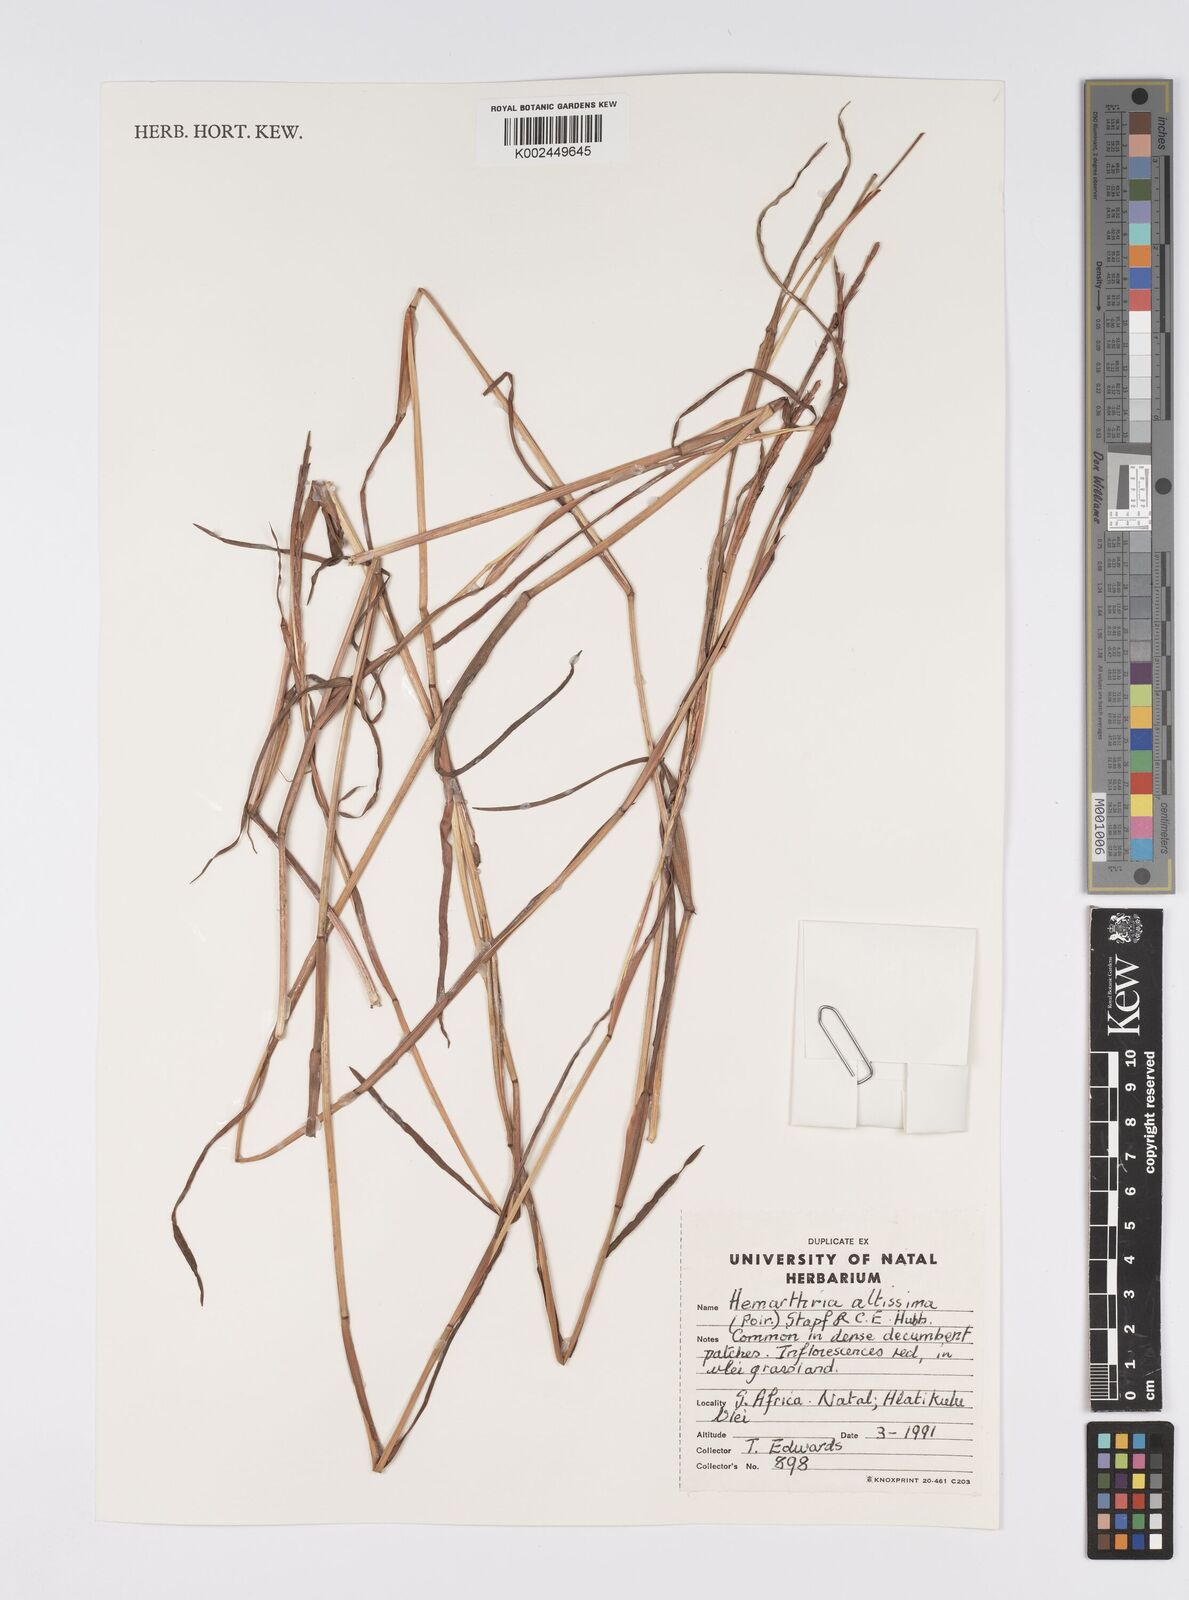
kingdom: Plantae
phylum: Tracheophyta
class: Liliopsida
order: Poales
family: Poaceae
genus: Hemarthria
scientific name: Hemarthria altissima
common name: African jointgrass
